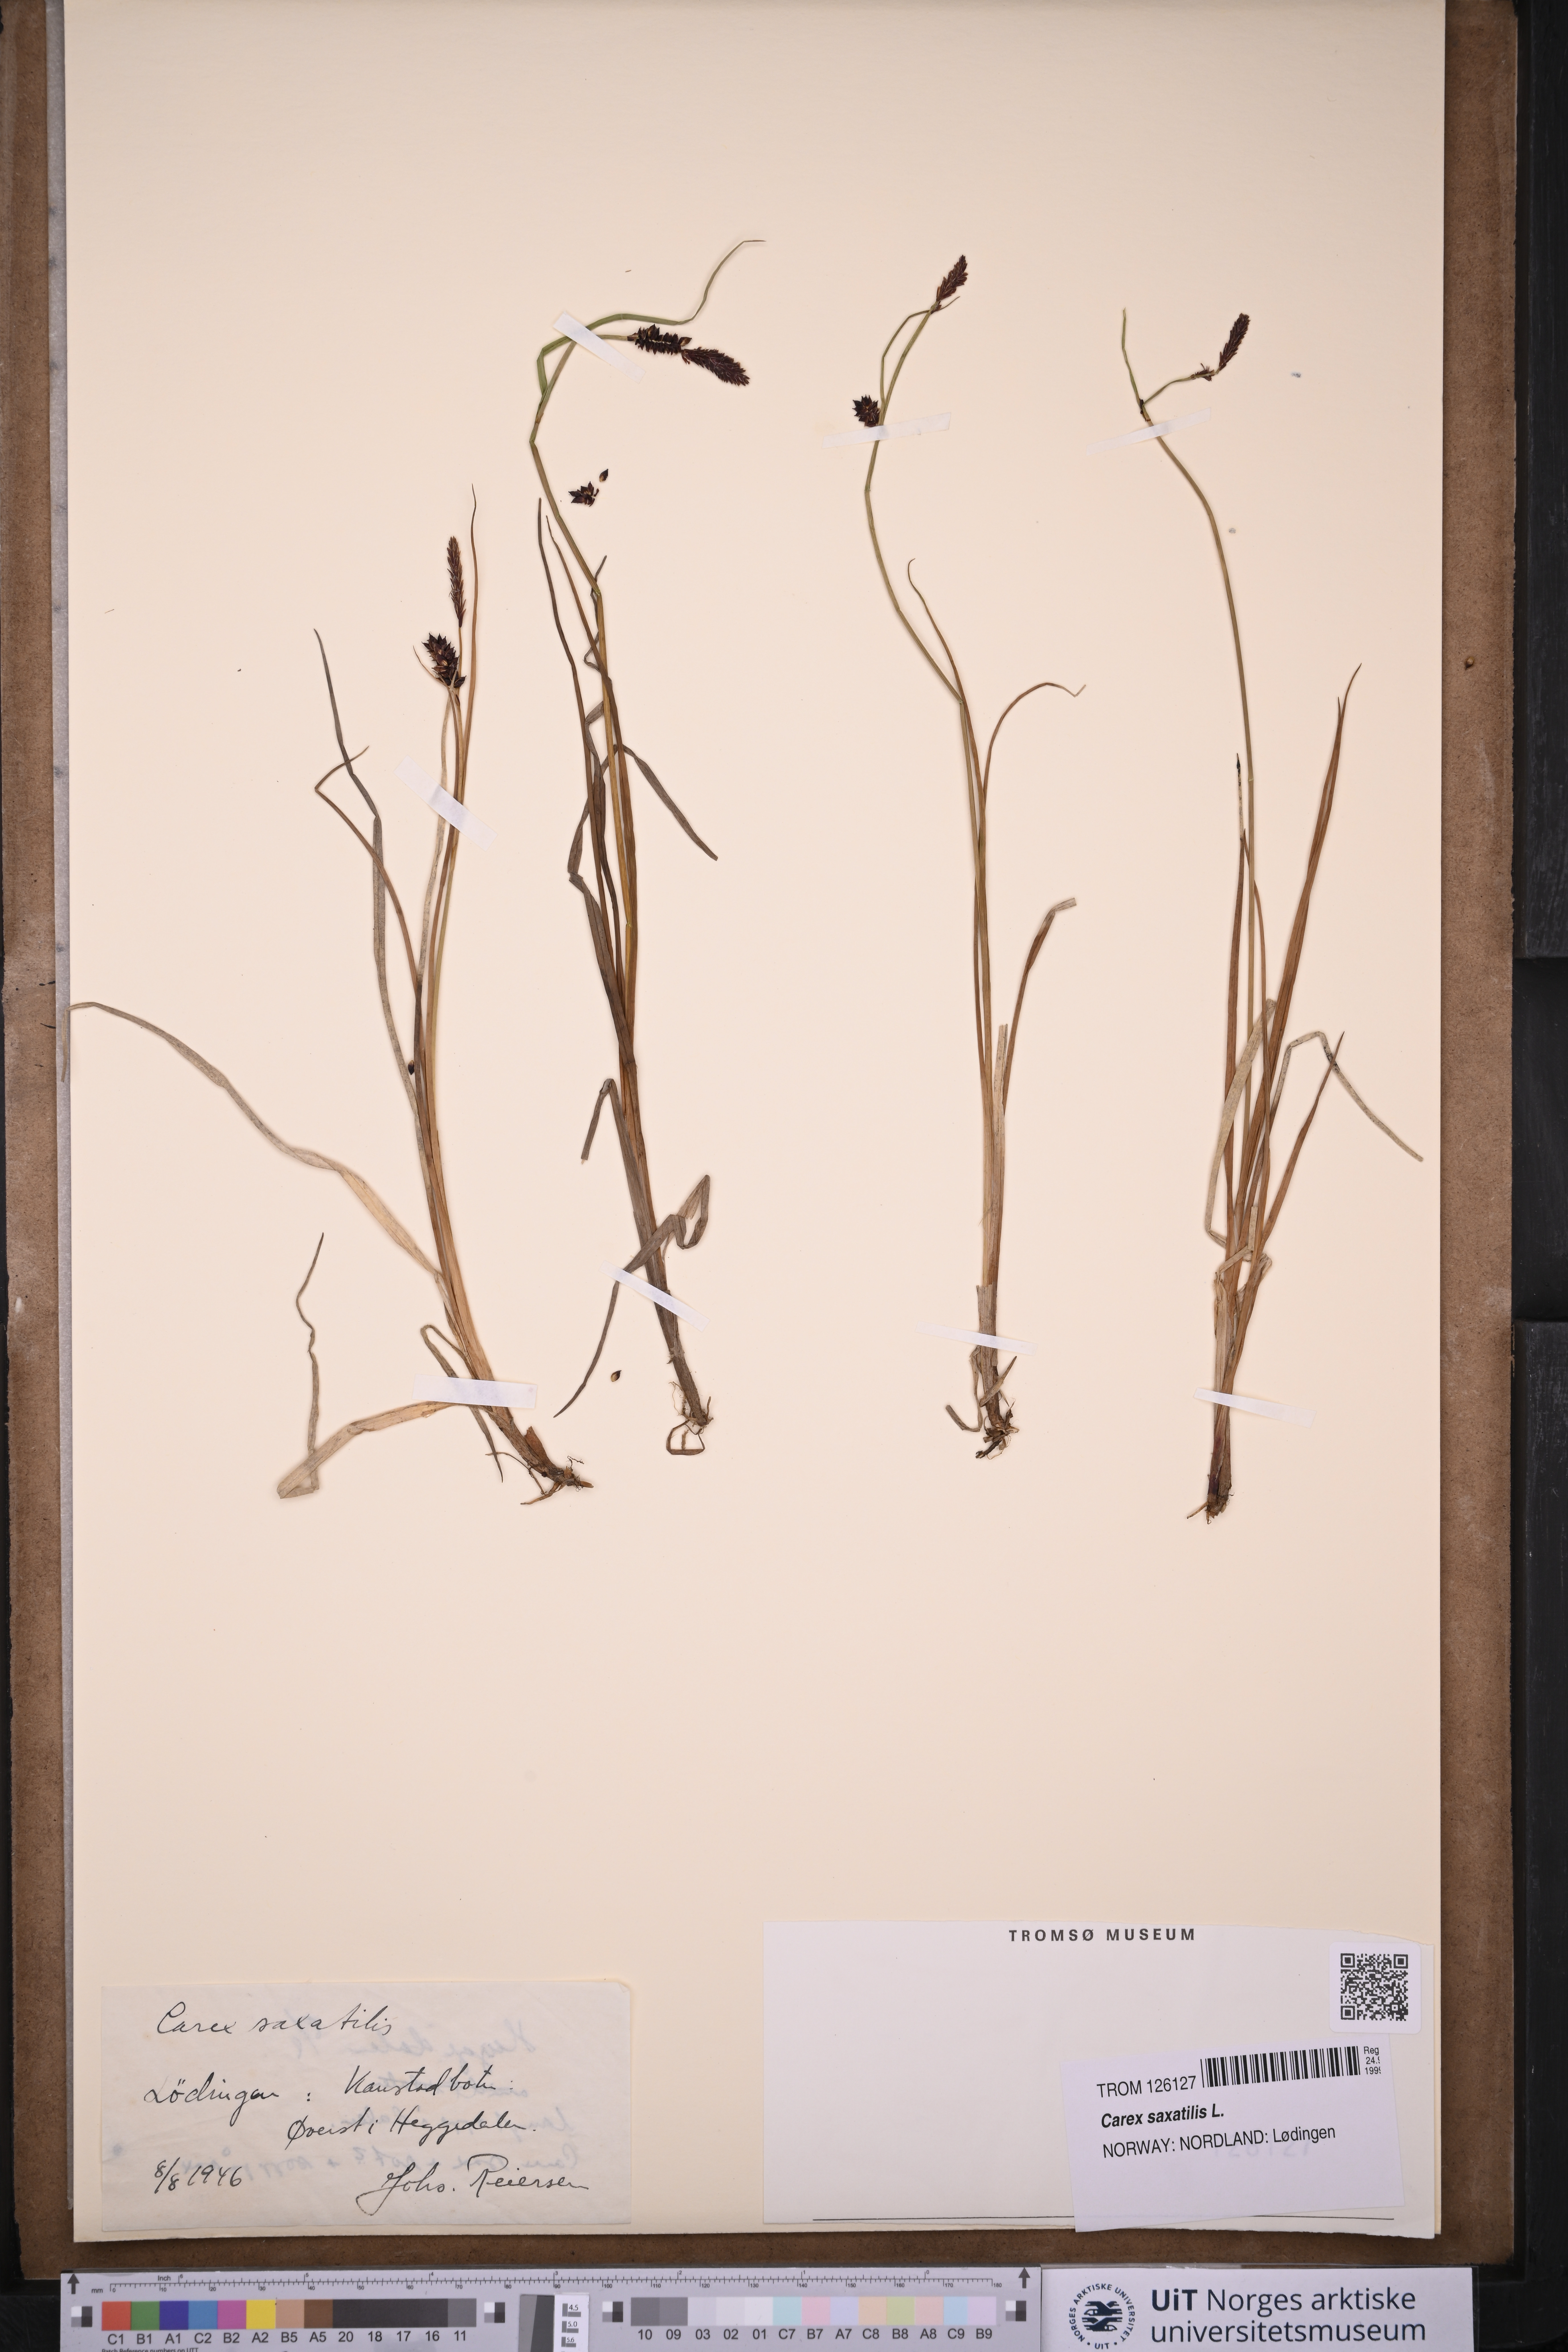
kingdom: Plantae
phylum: Tracheophyta
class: Liliopsida
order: Poales
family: Cyperaceae
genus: Carex
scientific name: Carex saxatilis
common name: Russet sedge
